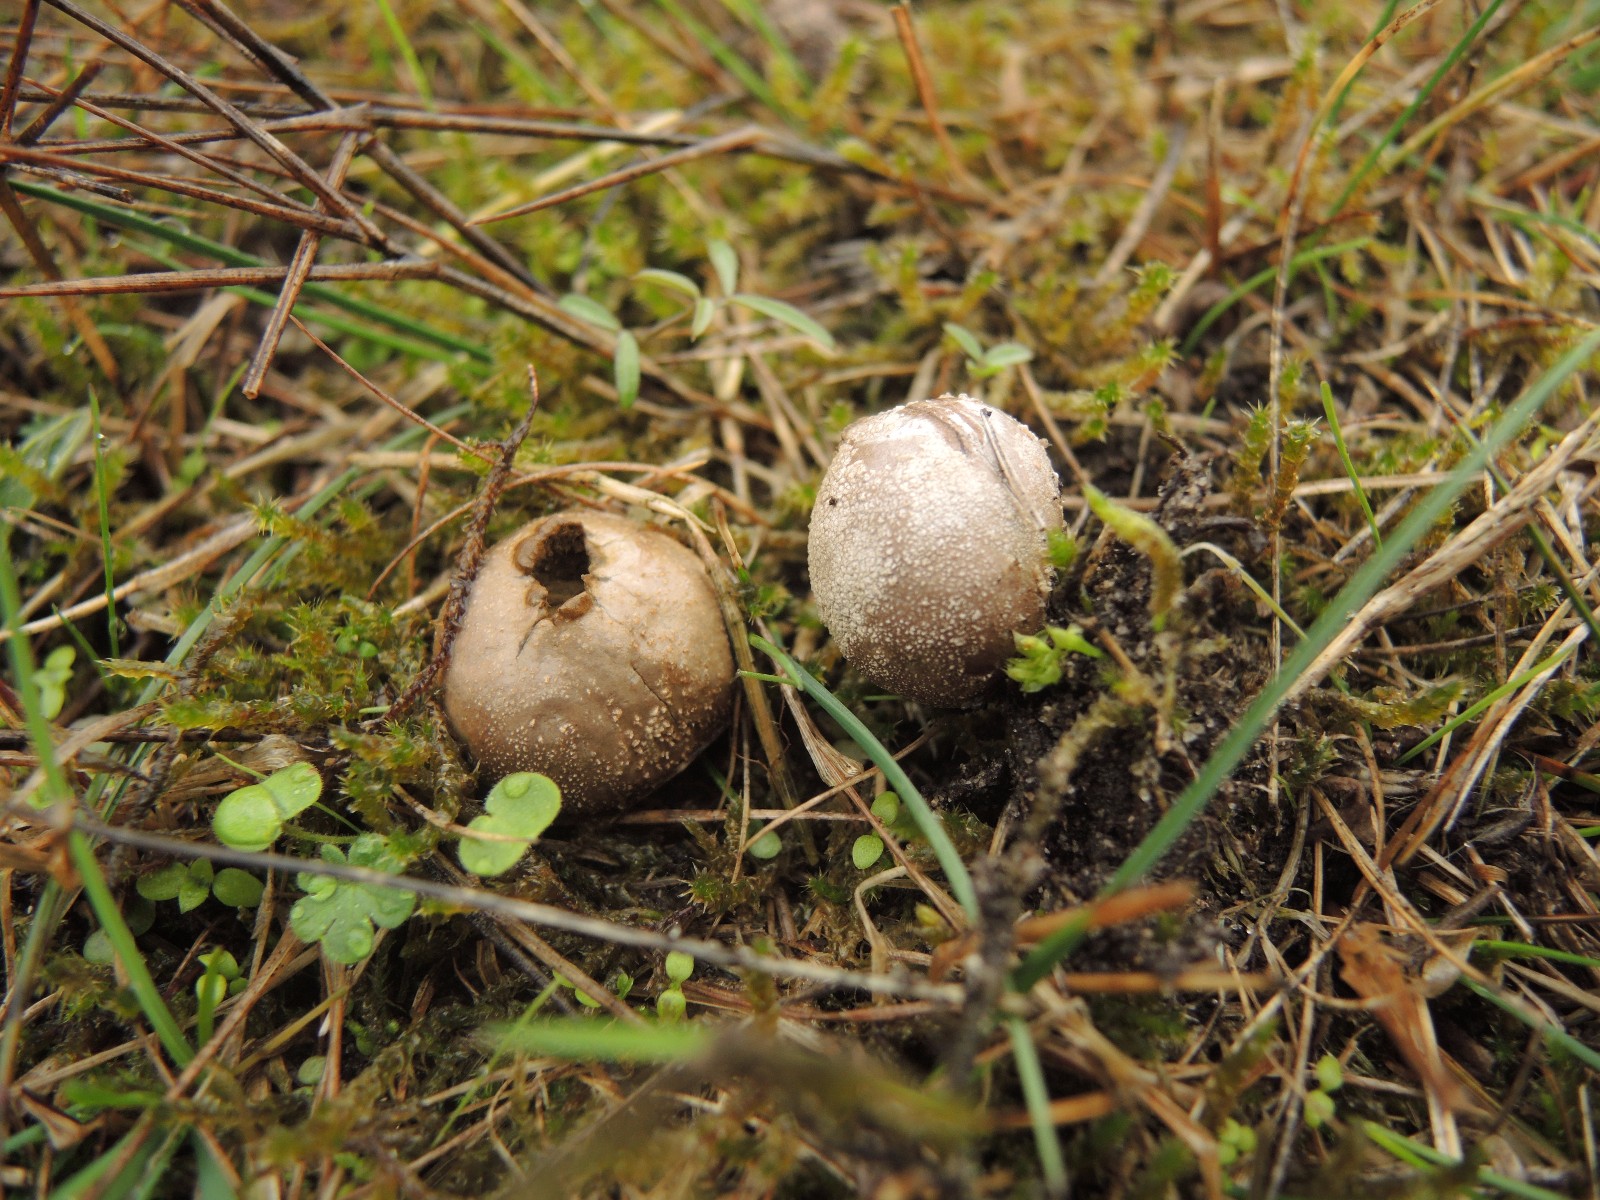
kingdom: Fungi
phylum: Basidiomycota
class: Agaricomycetes
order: Agaricales
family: Lycoperdaceae
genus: Bovista
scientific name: Bovista furfuracea
